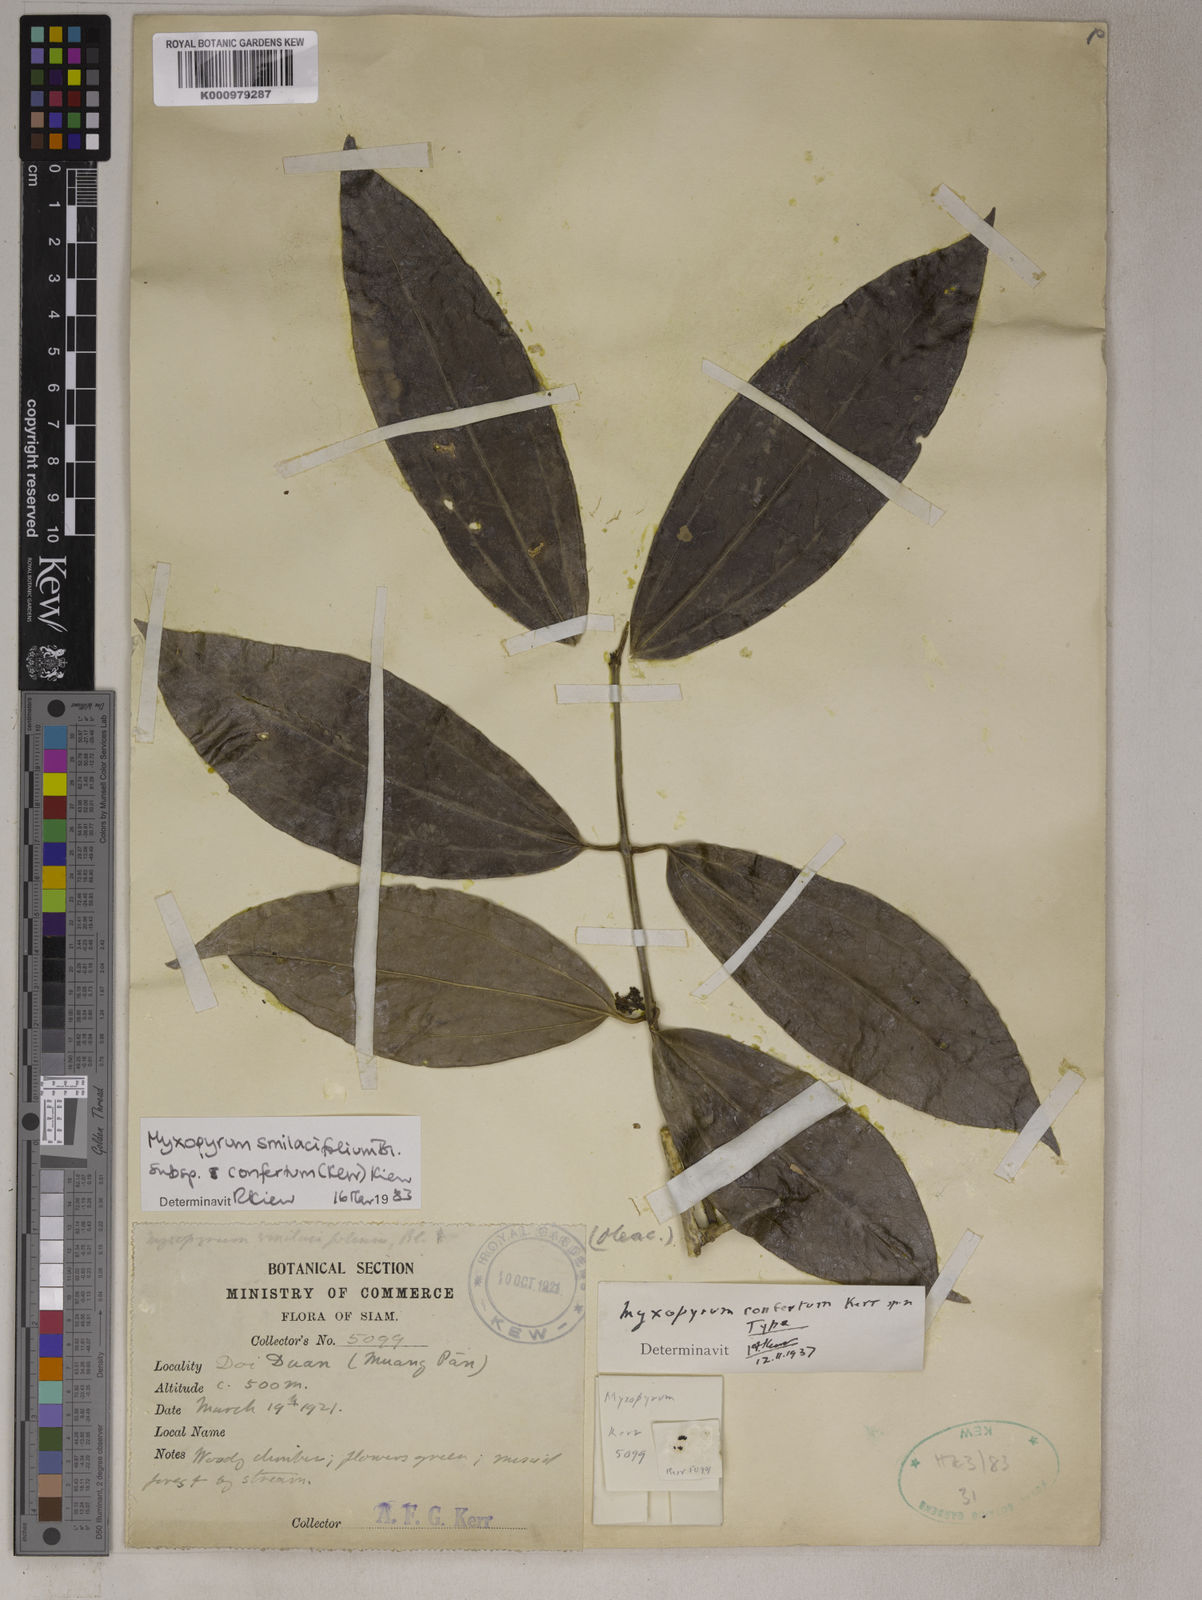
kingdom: Plantae
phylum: Tracheophyta
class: Magnoliopsida
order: Lamiales
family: Oleaceae
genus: Myxopyrum
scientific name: Myxopyrum pierrei
